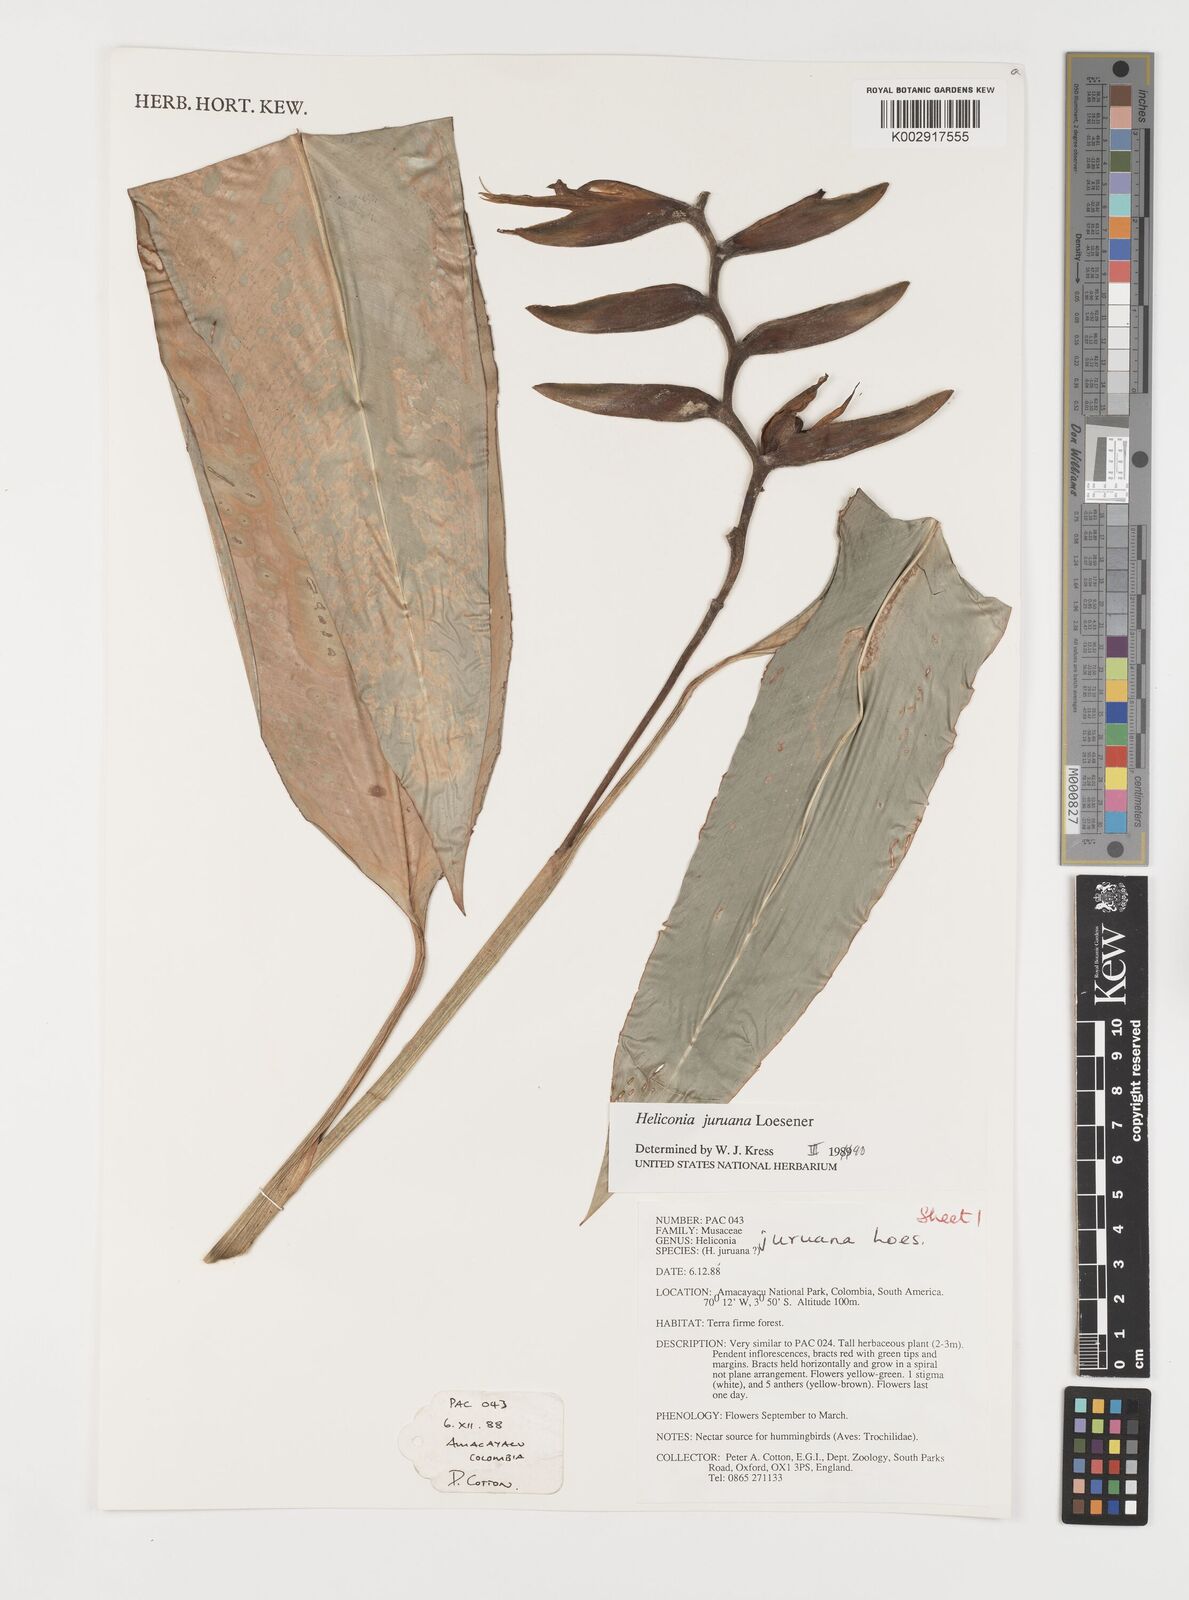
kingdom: Plantae
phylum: Tracheophyta
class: Liliopsida
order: Zingiberales
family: Heliconiaceae
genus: Heliconia
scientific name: Heliconia juruana
